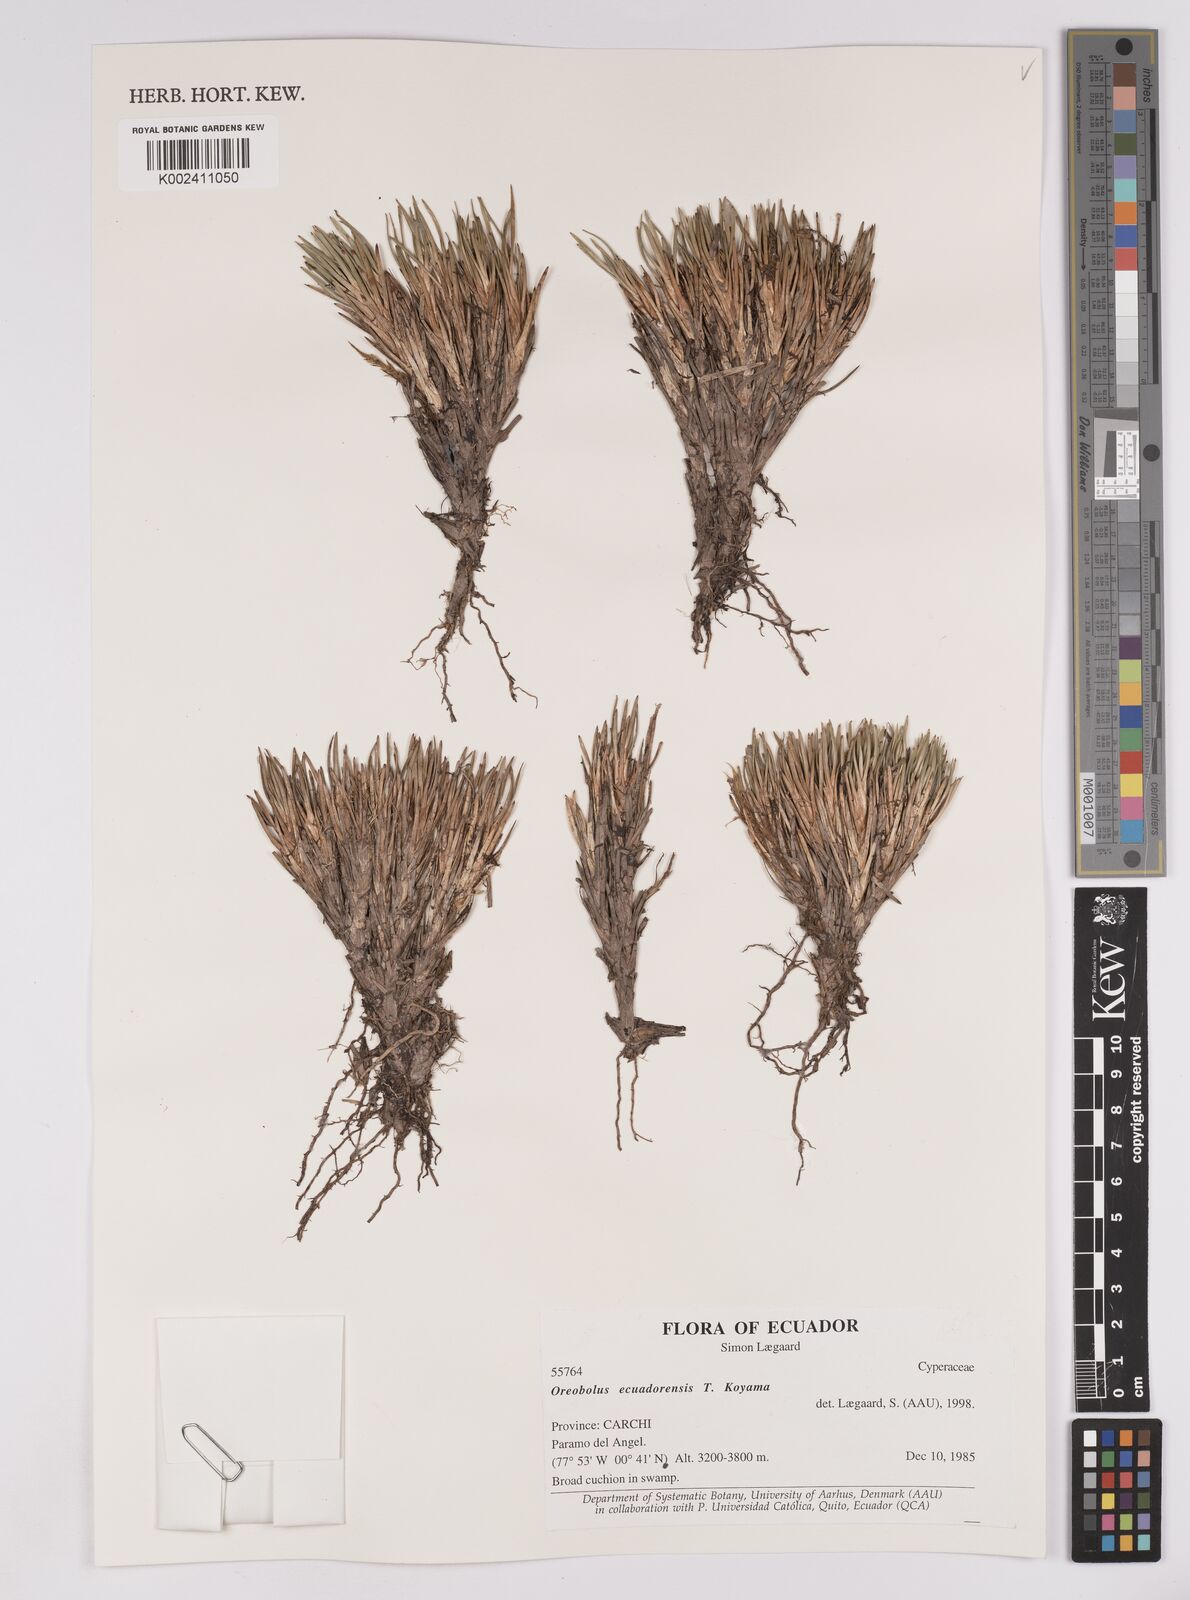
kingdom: Plantae
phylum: Tracheophyta
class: Liliopsida
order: Poales
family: Cyperaceae
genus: Oreobolus
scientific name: Oreobolus ecuadorensis
